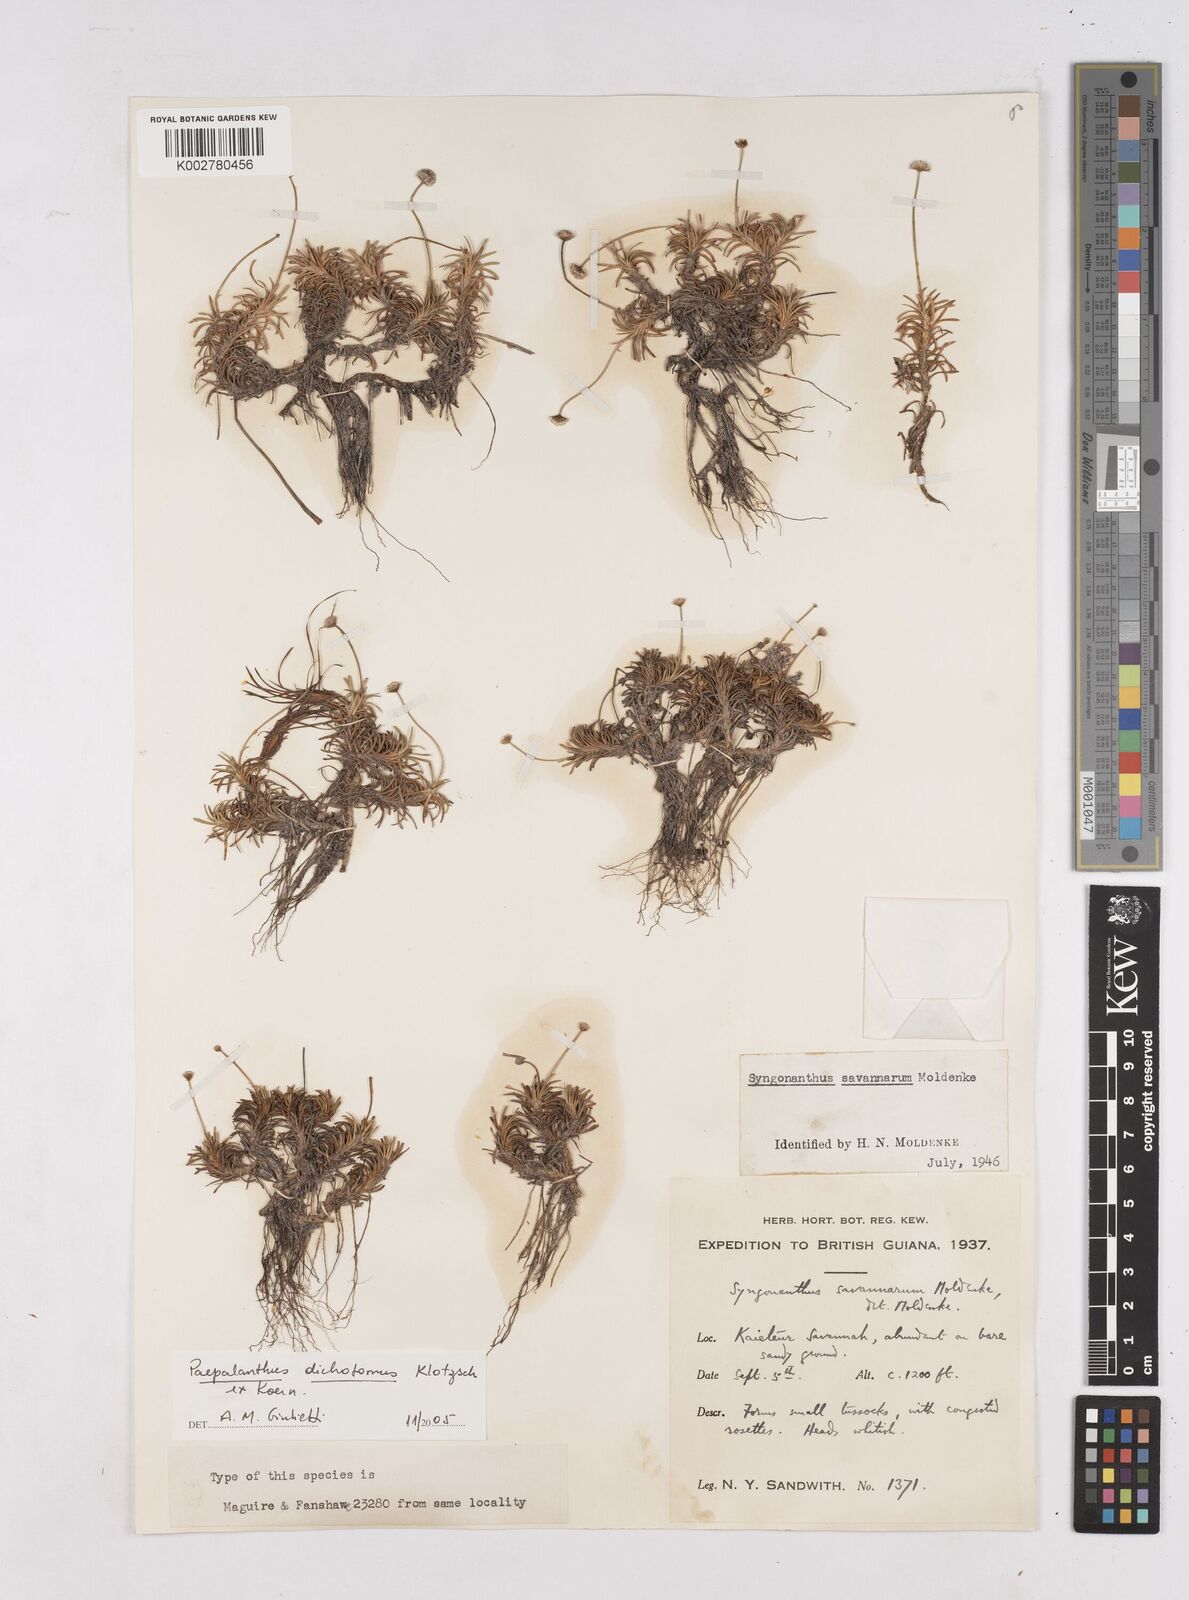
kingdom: Plantae
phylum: Tracheophyta
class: Liliopsida
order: Poales
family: Eriocaulaceae
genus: Paepalanthus
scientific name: Paepalanthus dichotomus
